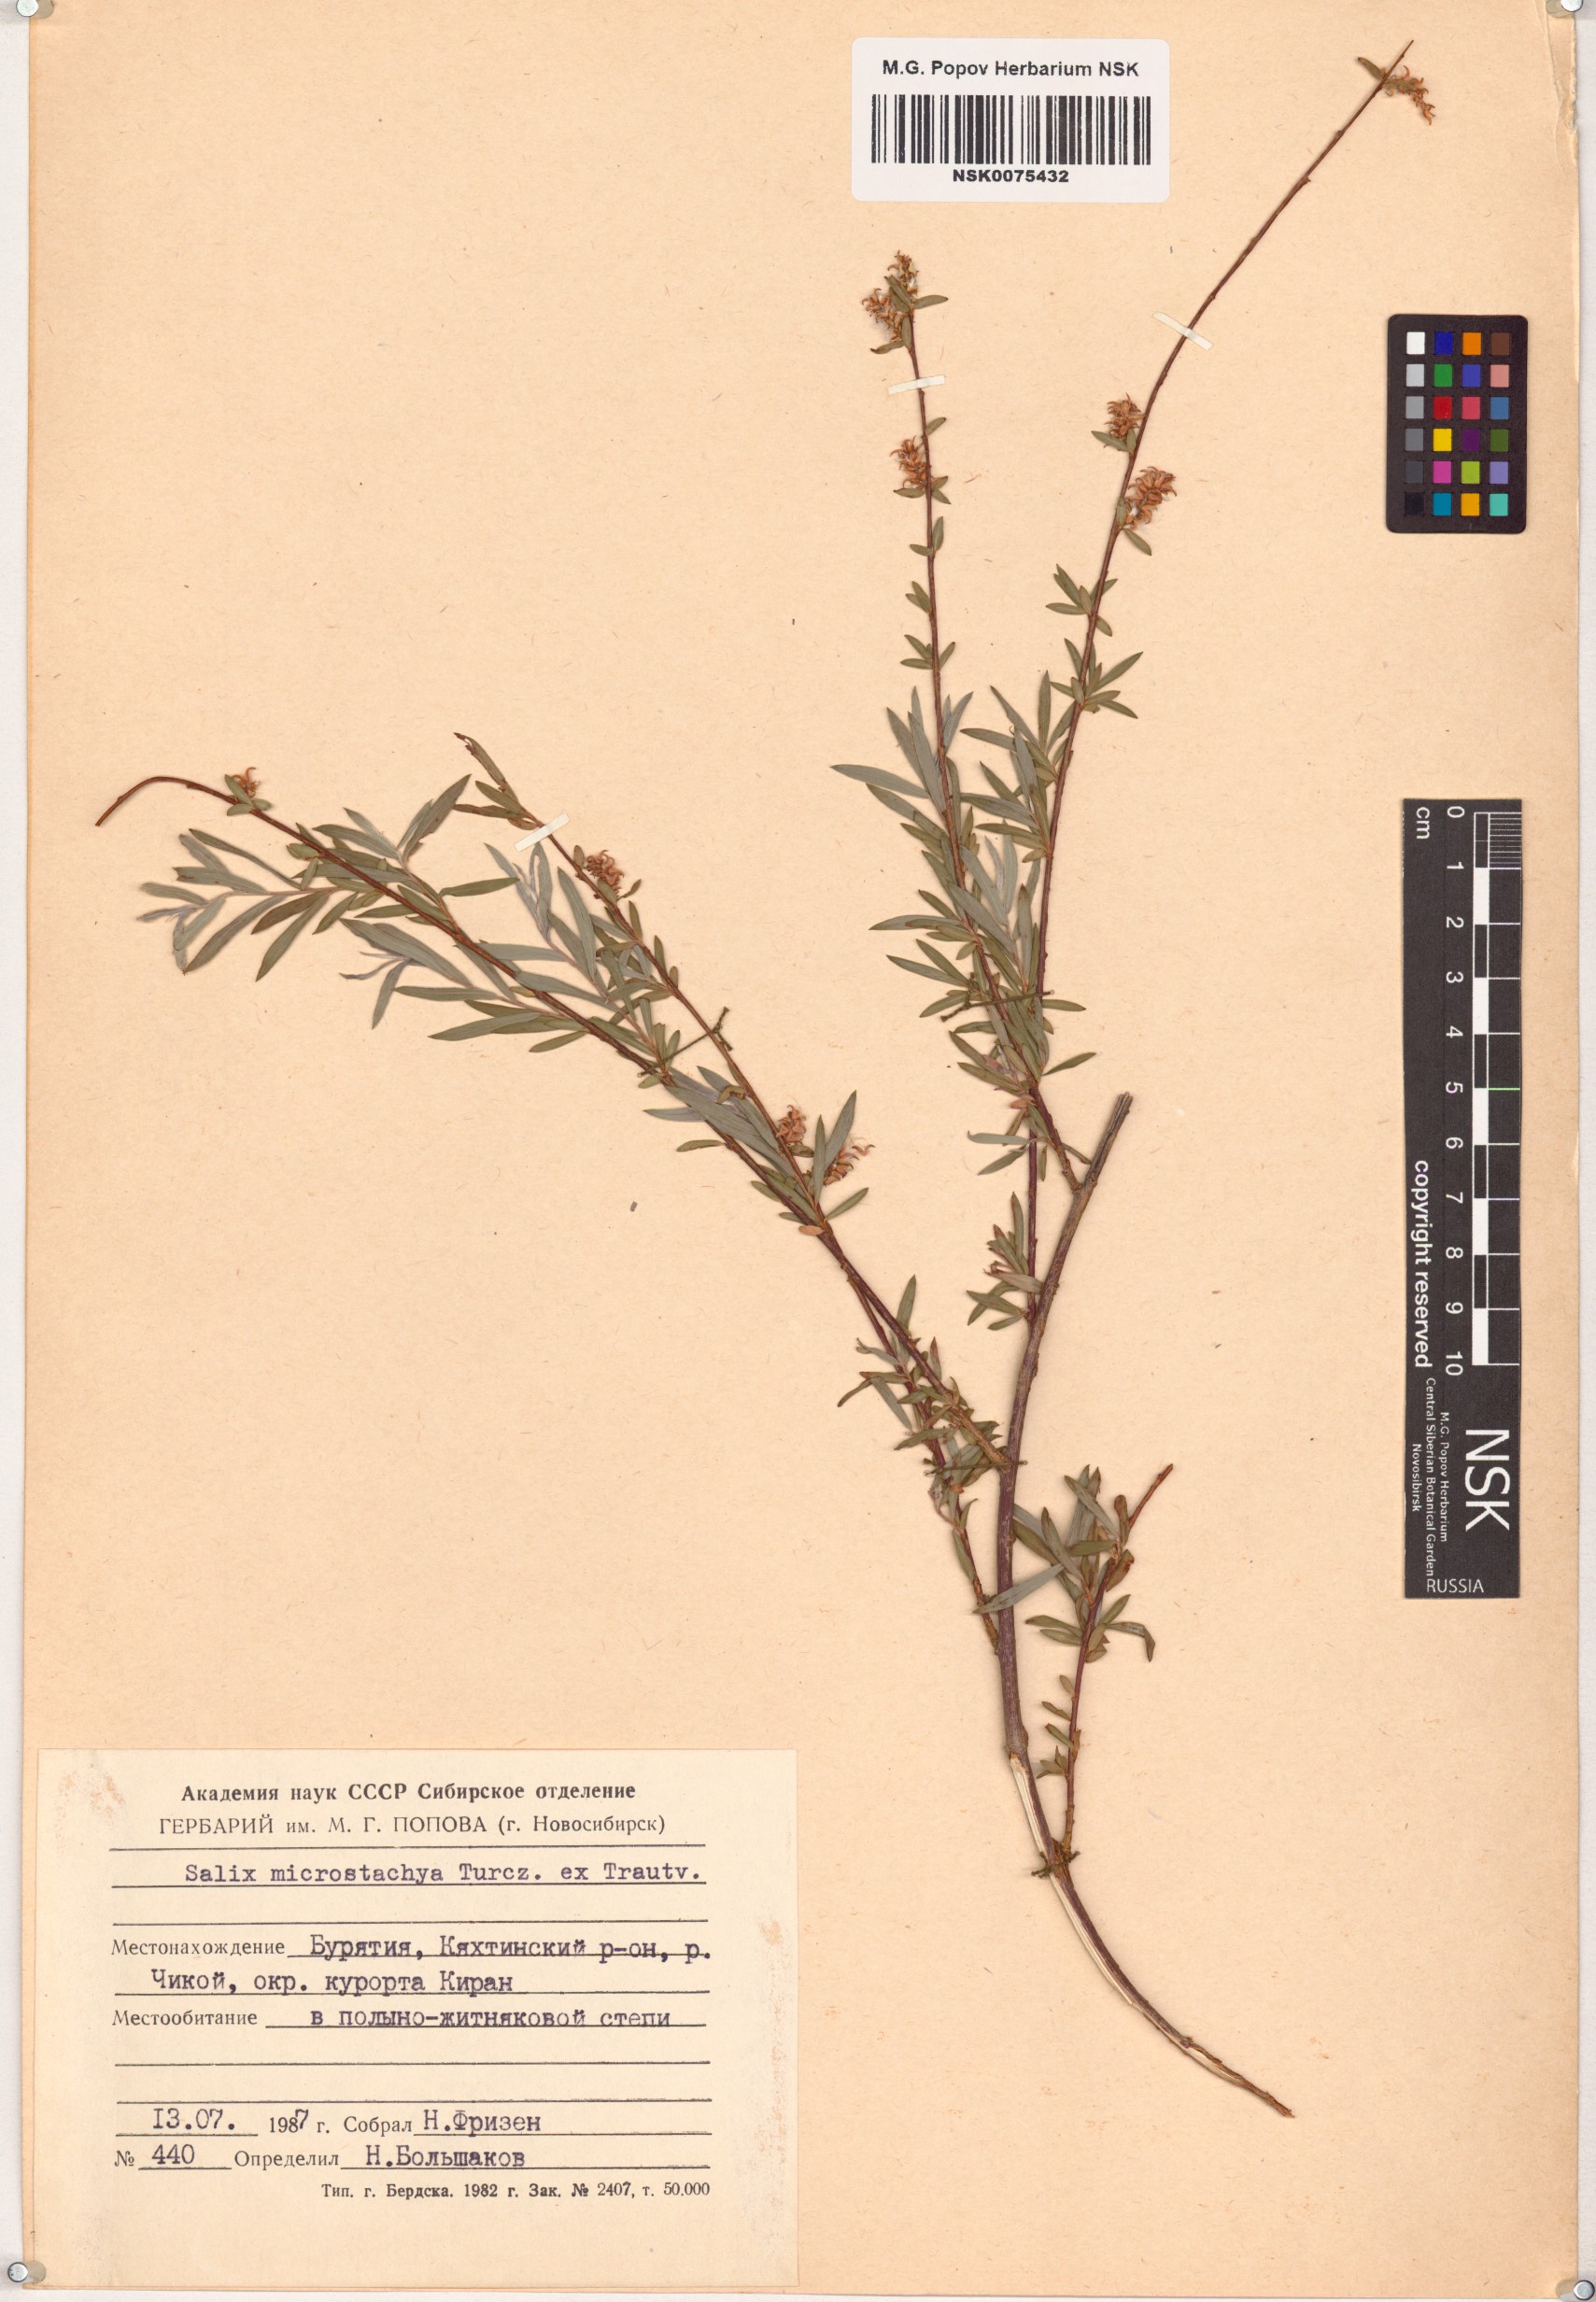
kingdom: Plantae
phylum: Tracheophyta
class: Magnoliopsida
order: Malpighiales
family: Salicaceae
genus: Salix
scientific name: Salix microstachya
